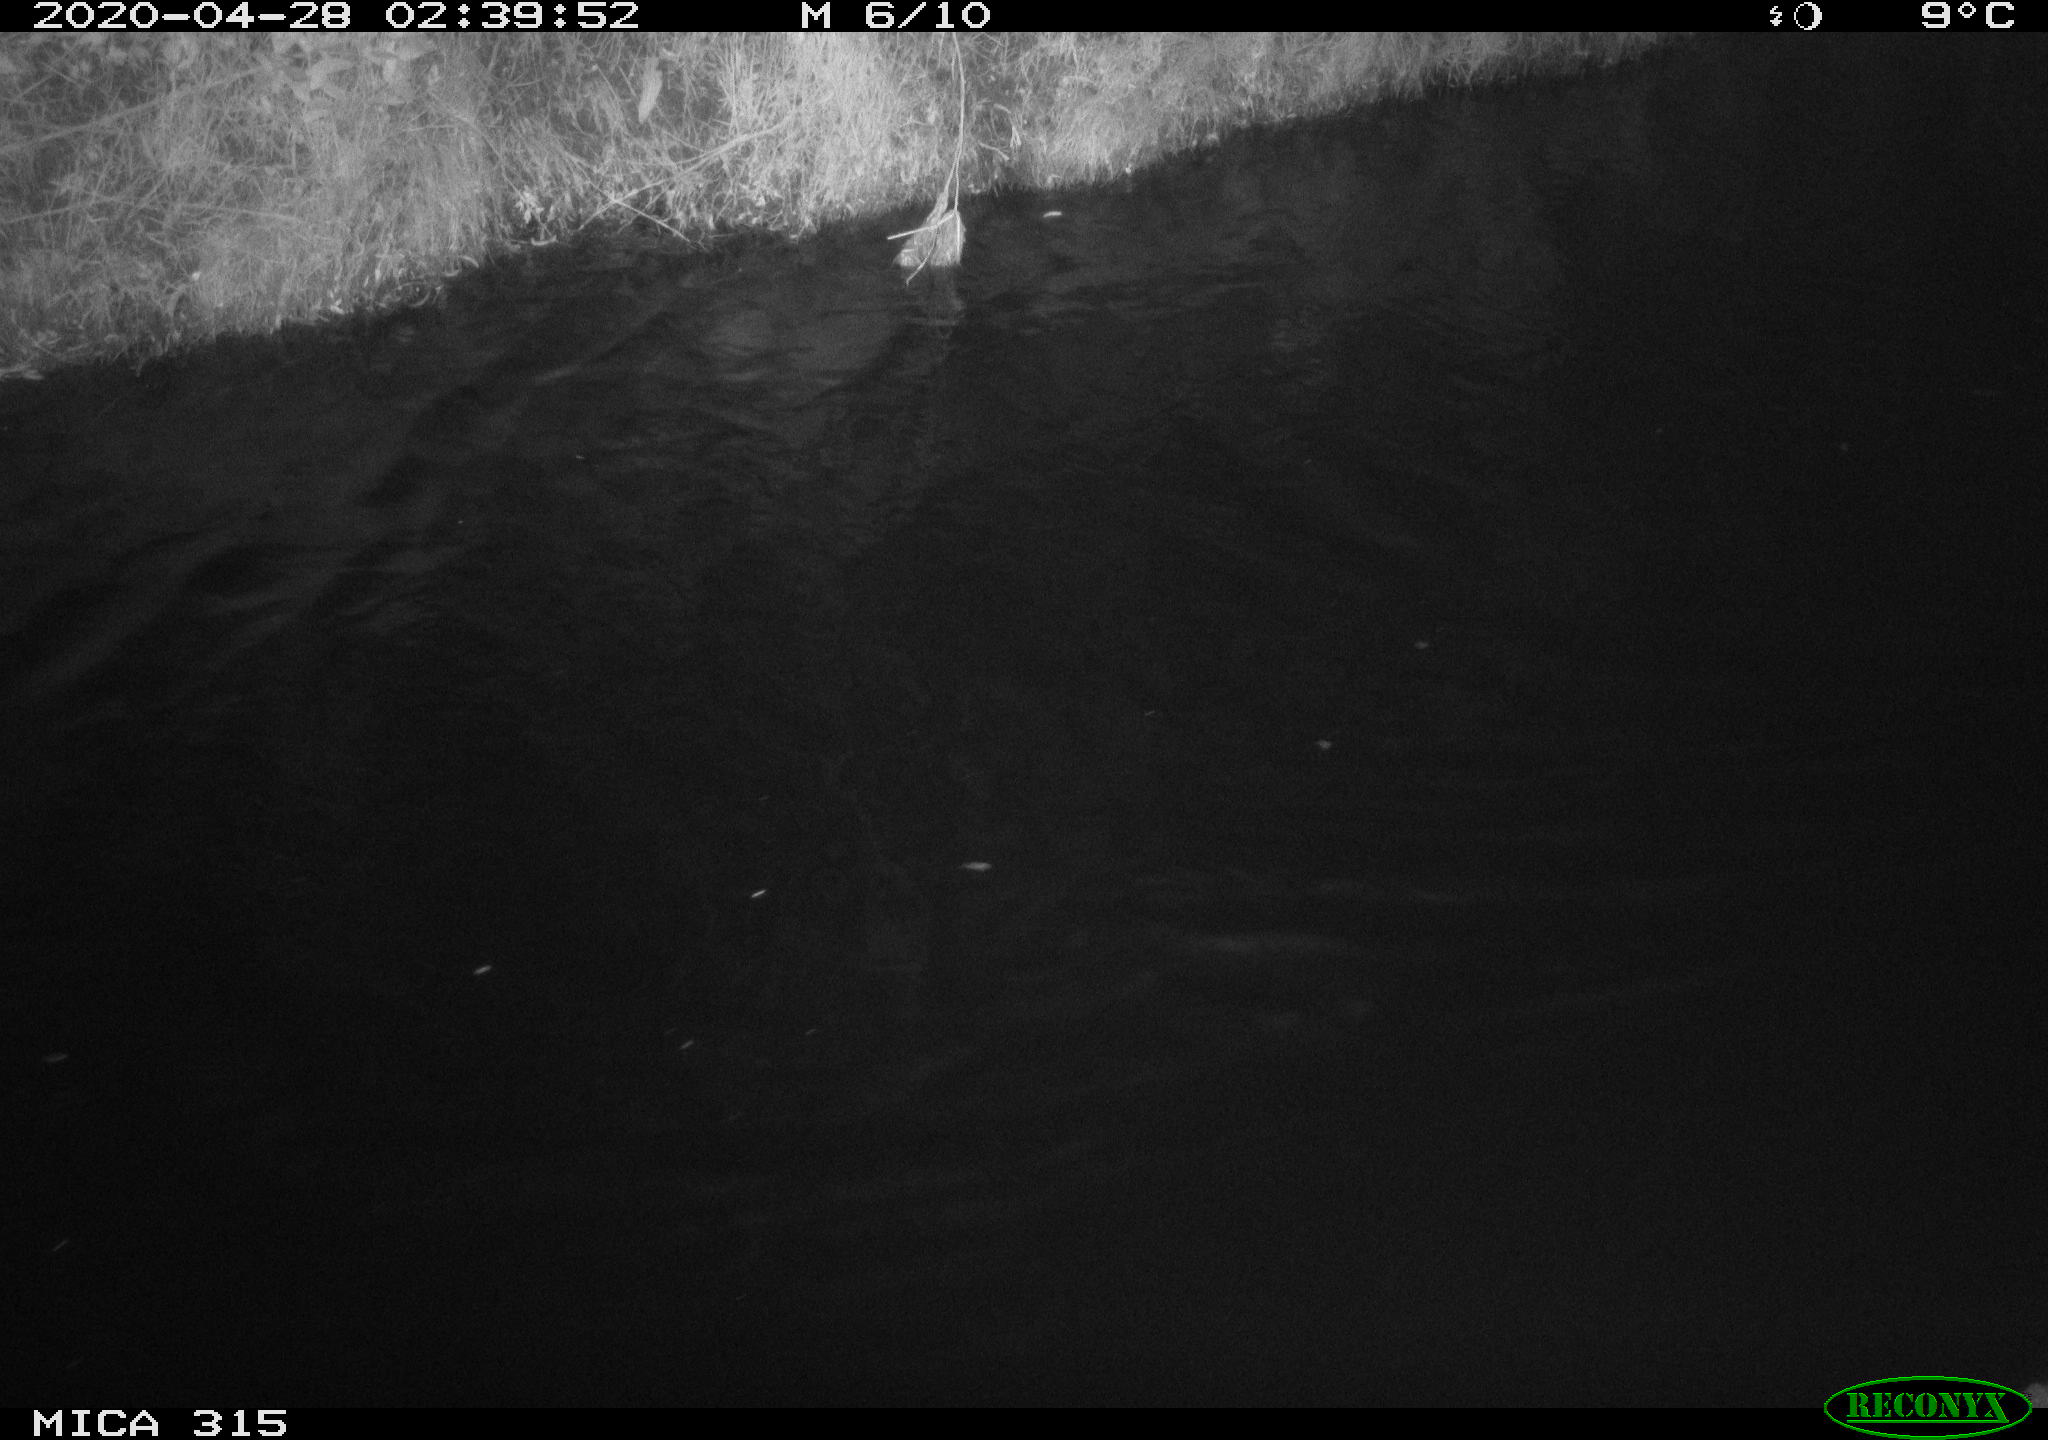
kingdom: Animalia
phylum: Chordata
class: Aves
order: Anseriformes
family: Anatidae
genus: Anas
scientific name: Anas platyrhynchos
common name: Mallard
